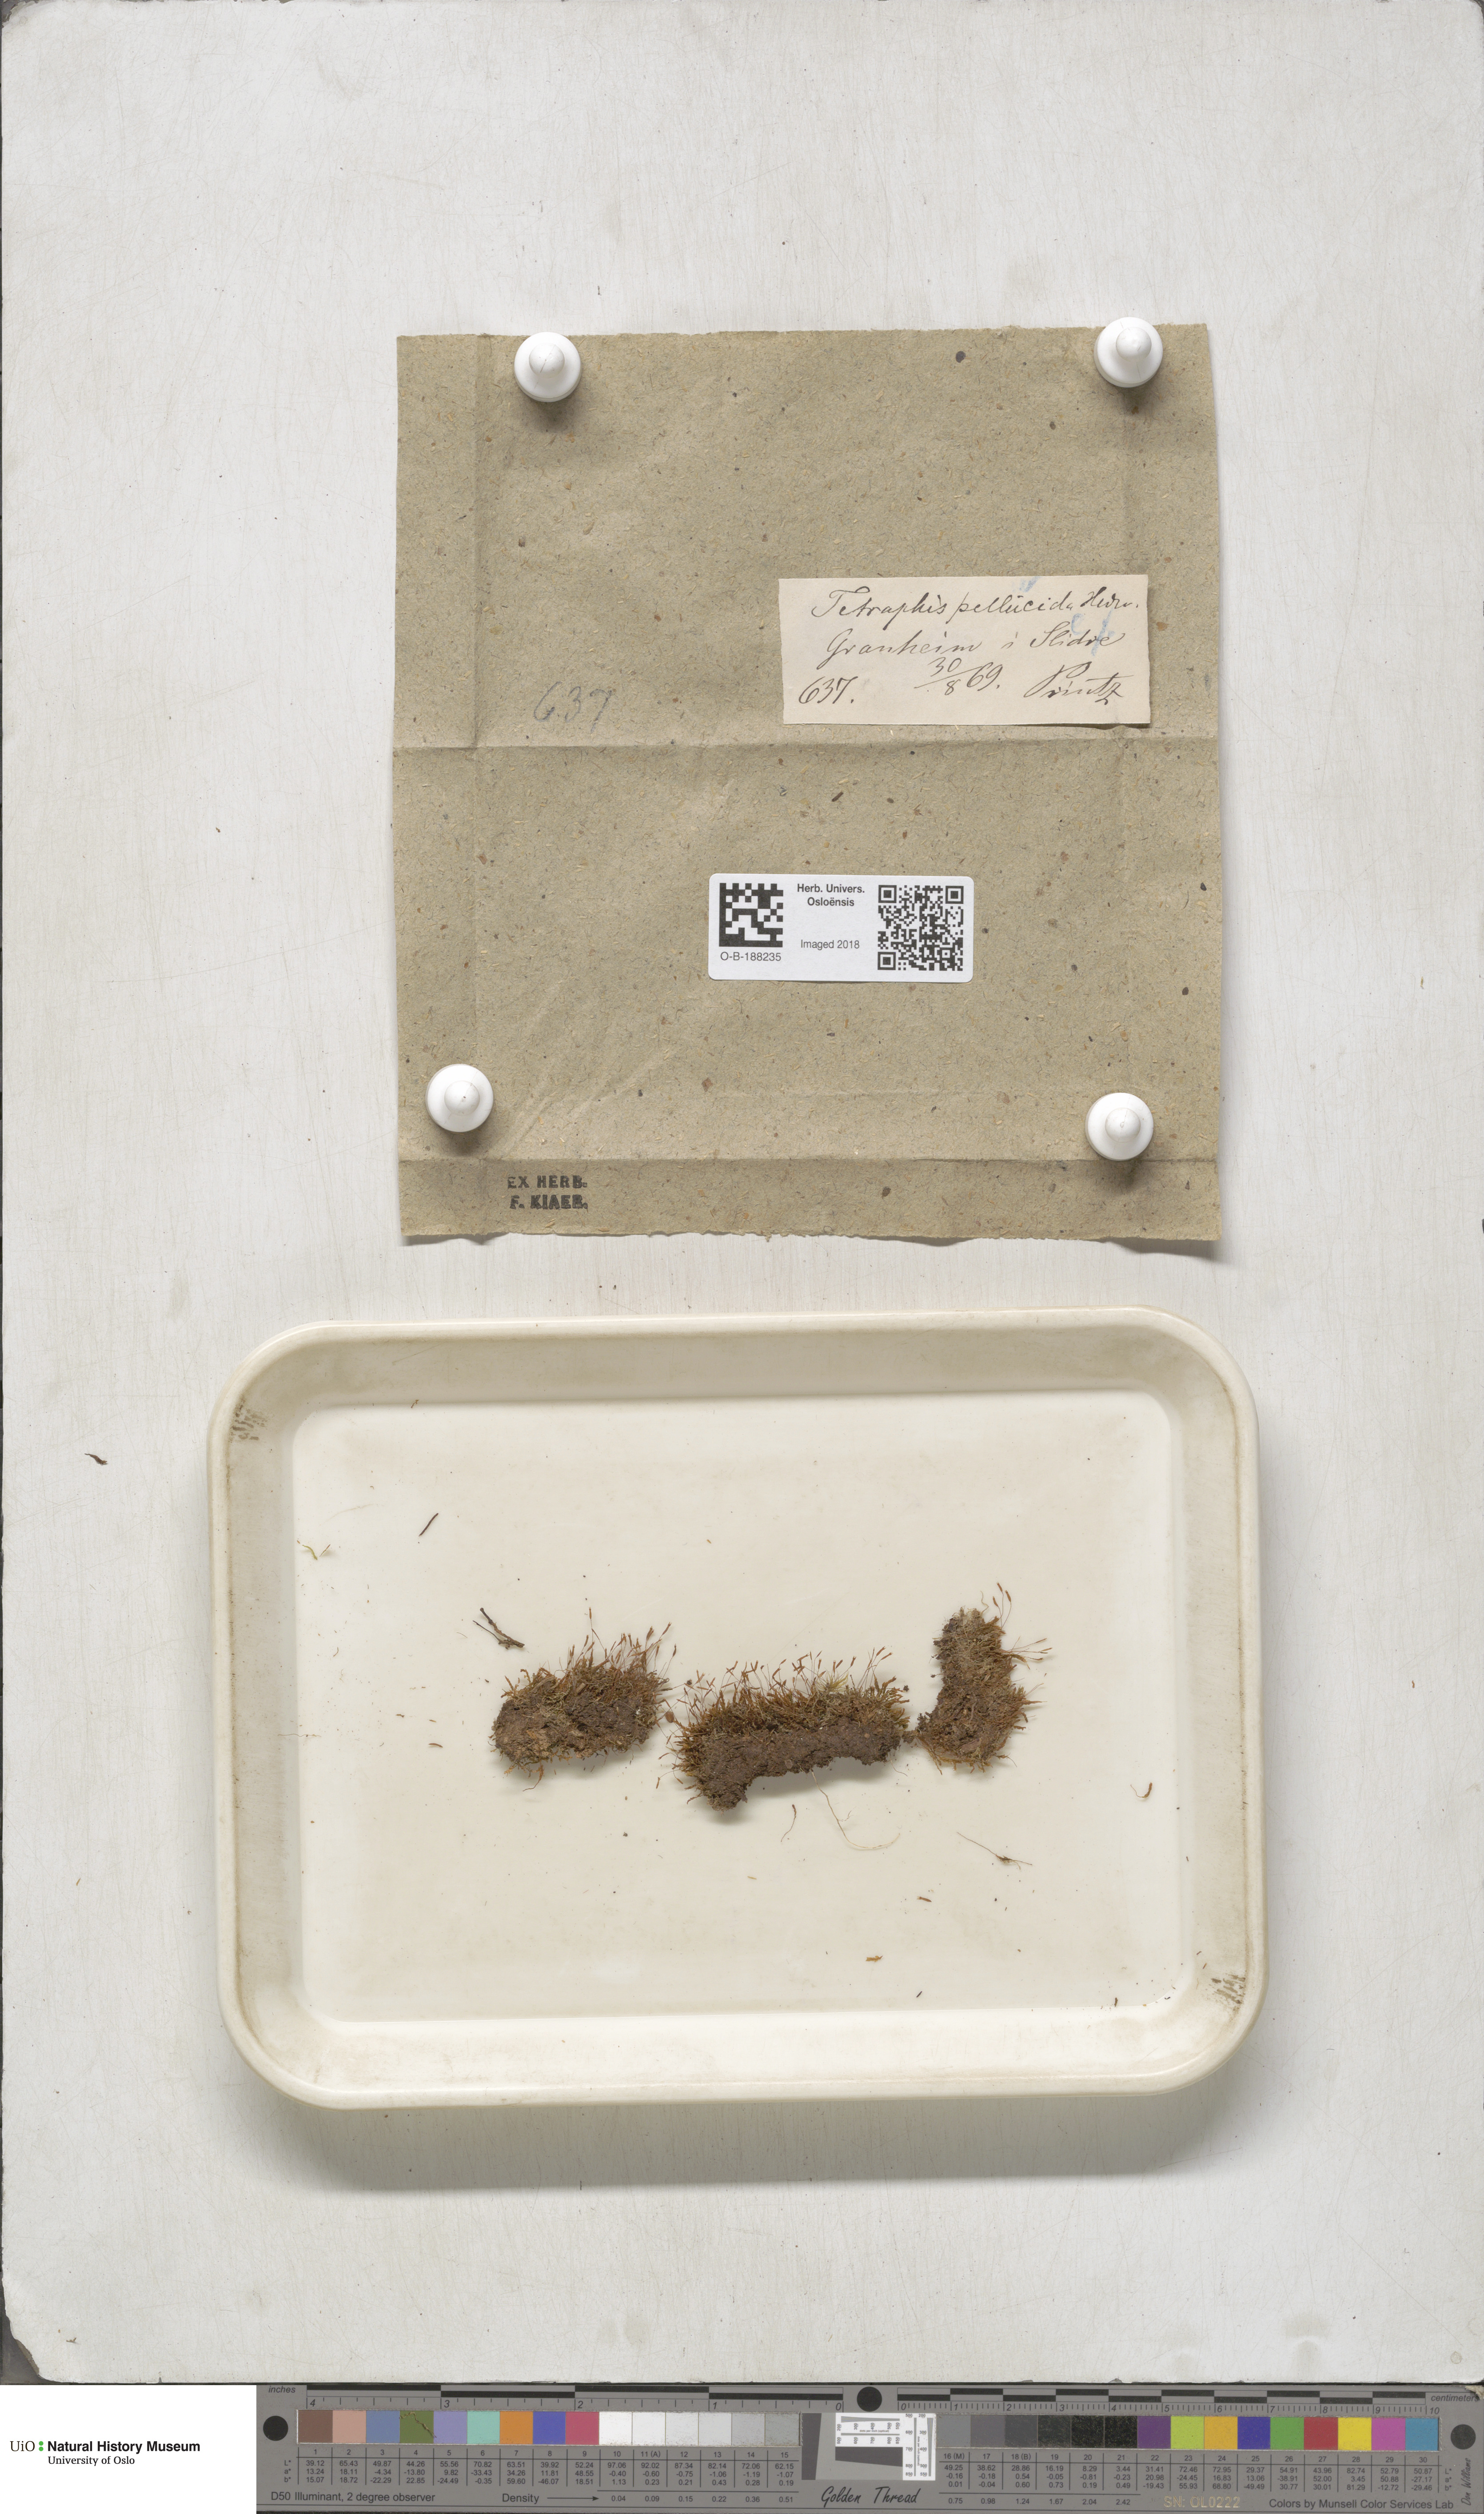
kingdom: Plantae
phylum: Bryophyta
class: Polytrichopsida
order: Tetraphidales
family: Tetraphidaceae
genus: Tetraphis
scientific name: Tetraphis pellucida
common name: Common four-toothed moss
